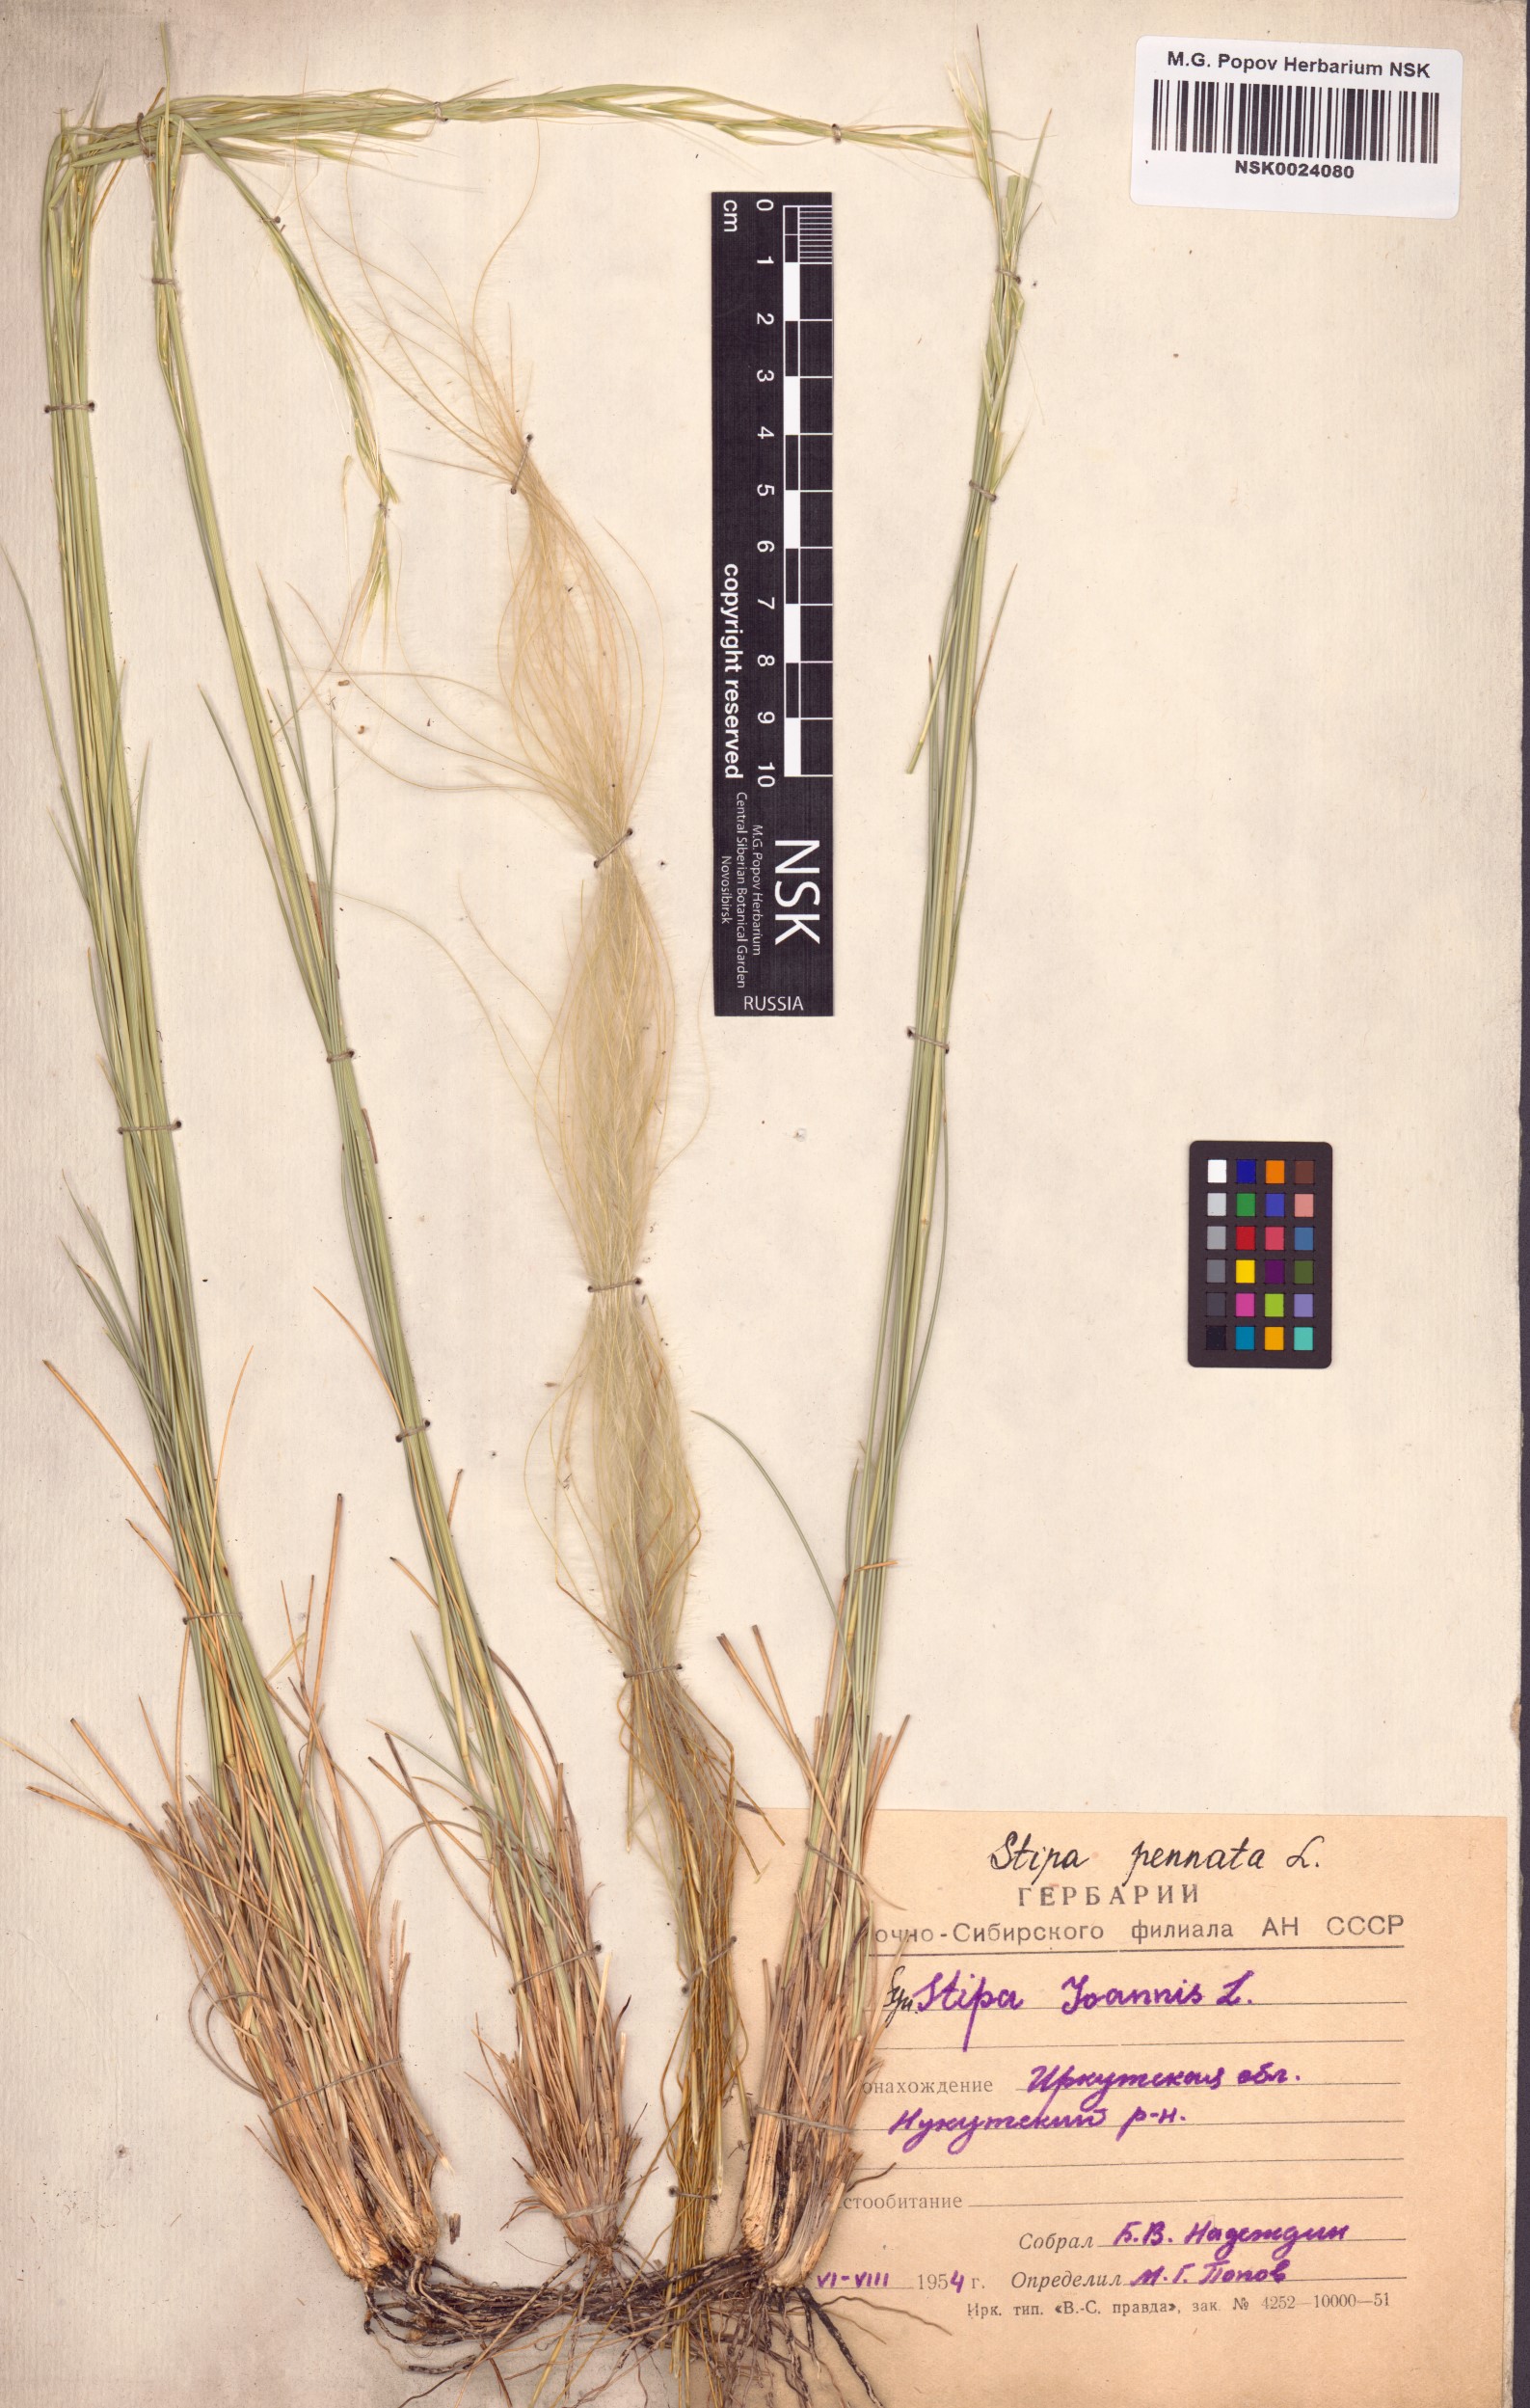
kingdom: Plantae
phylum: Tracheophyta
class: Liliopsida
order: Poales
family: Poaceae
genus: Stipa
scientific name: Stipa pennata
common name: European feather grass
